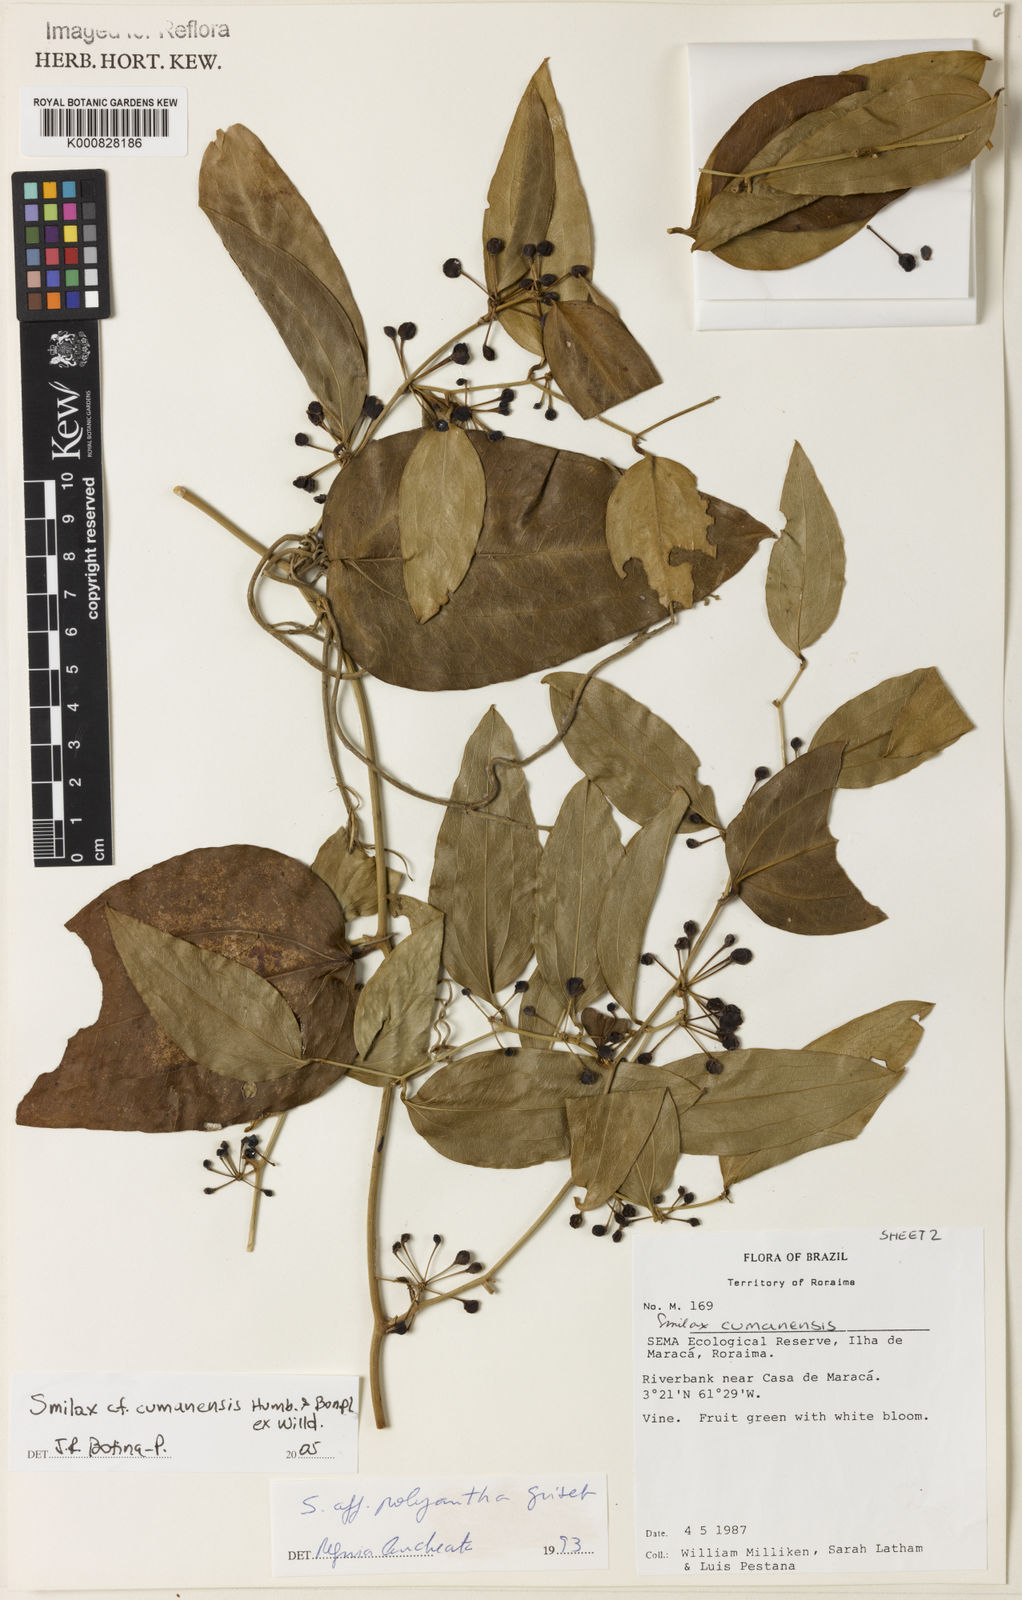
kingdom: Plantae
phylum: Tracheophyta
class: Liliopsida
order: Liliales
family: Smilacaceae
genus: Smilax
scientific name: Smilax oblongata
